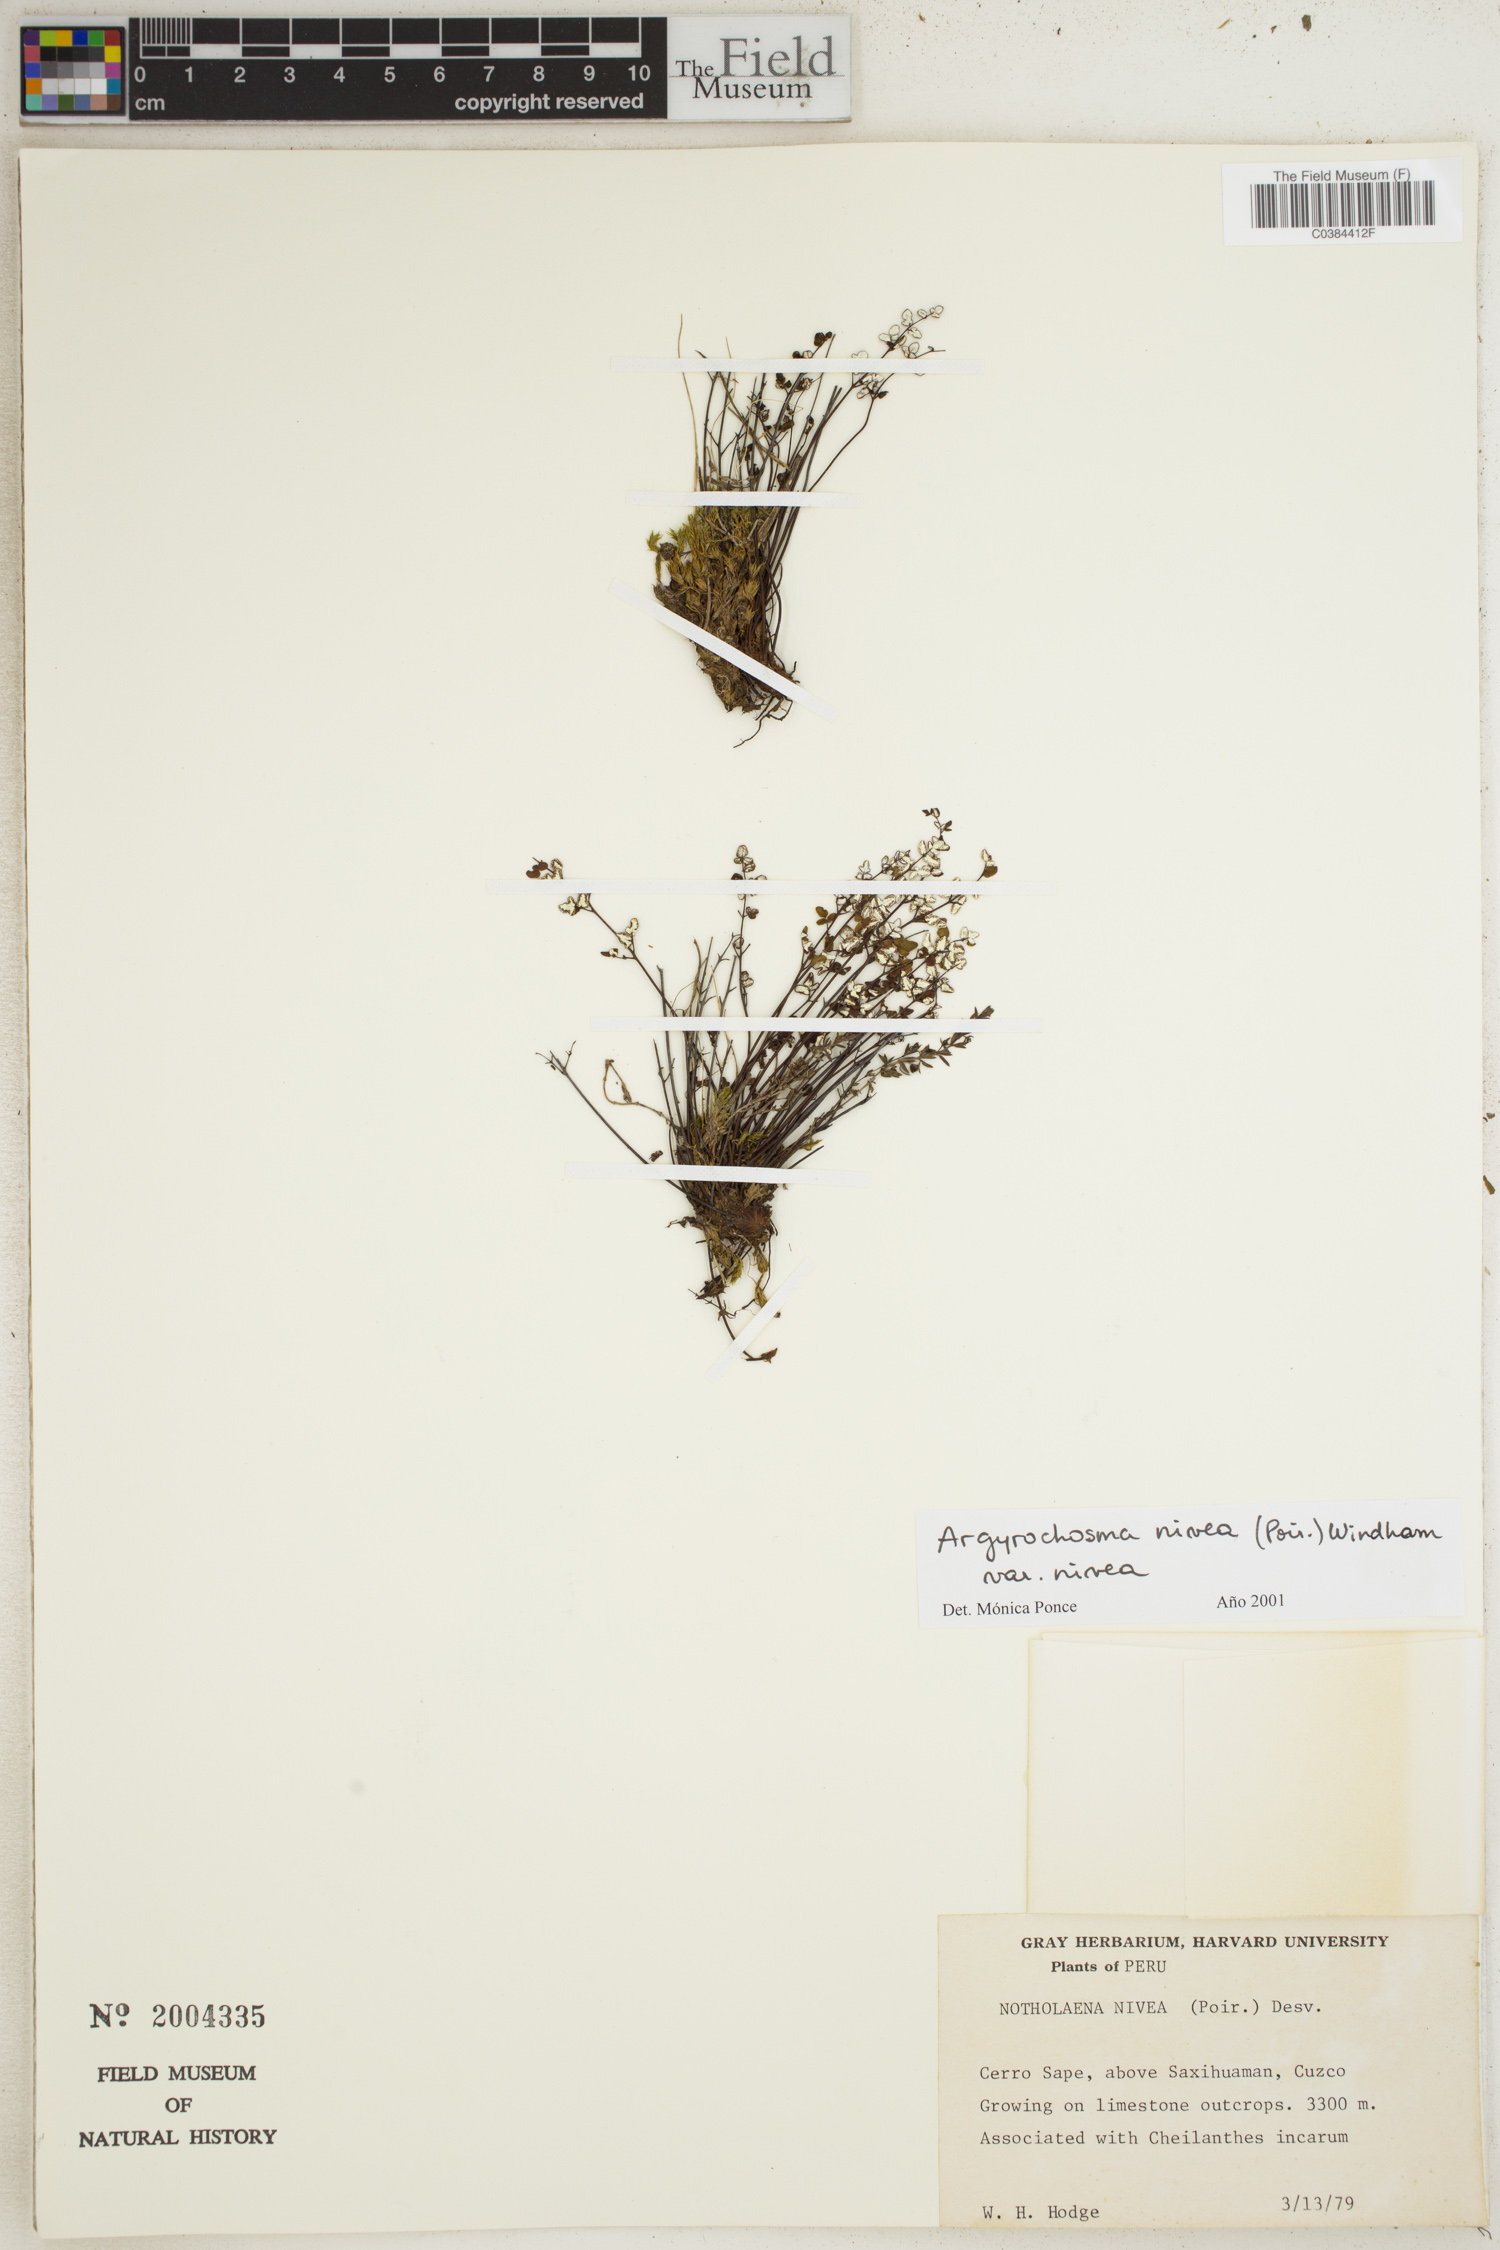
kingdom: Plantae
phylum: Tracheophyta
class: Polypodiopsida
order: Polypodiales
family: Pteridaceae
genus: Argyrochosma
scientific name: Argyrochosma nivea
